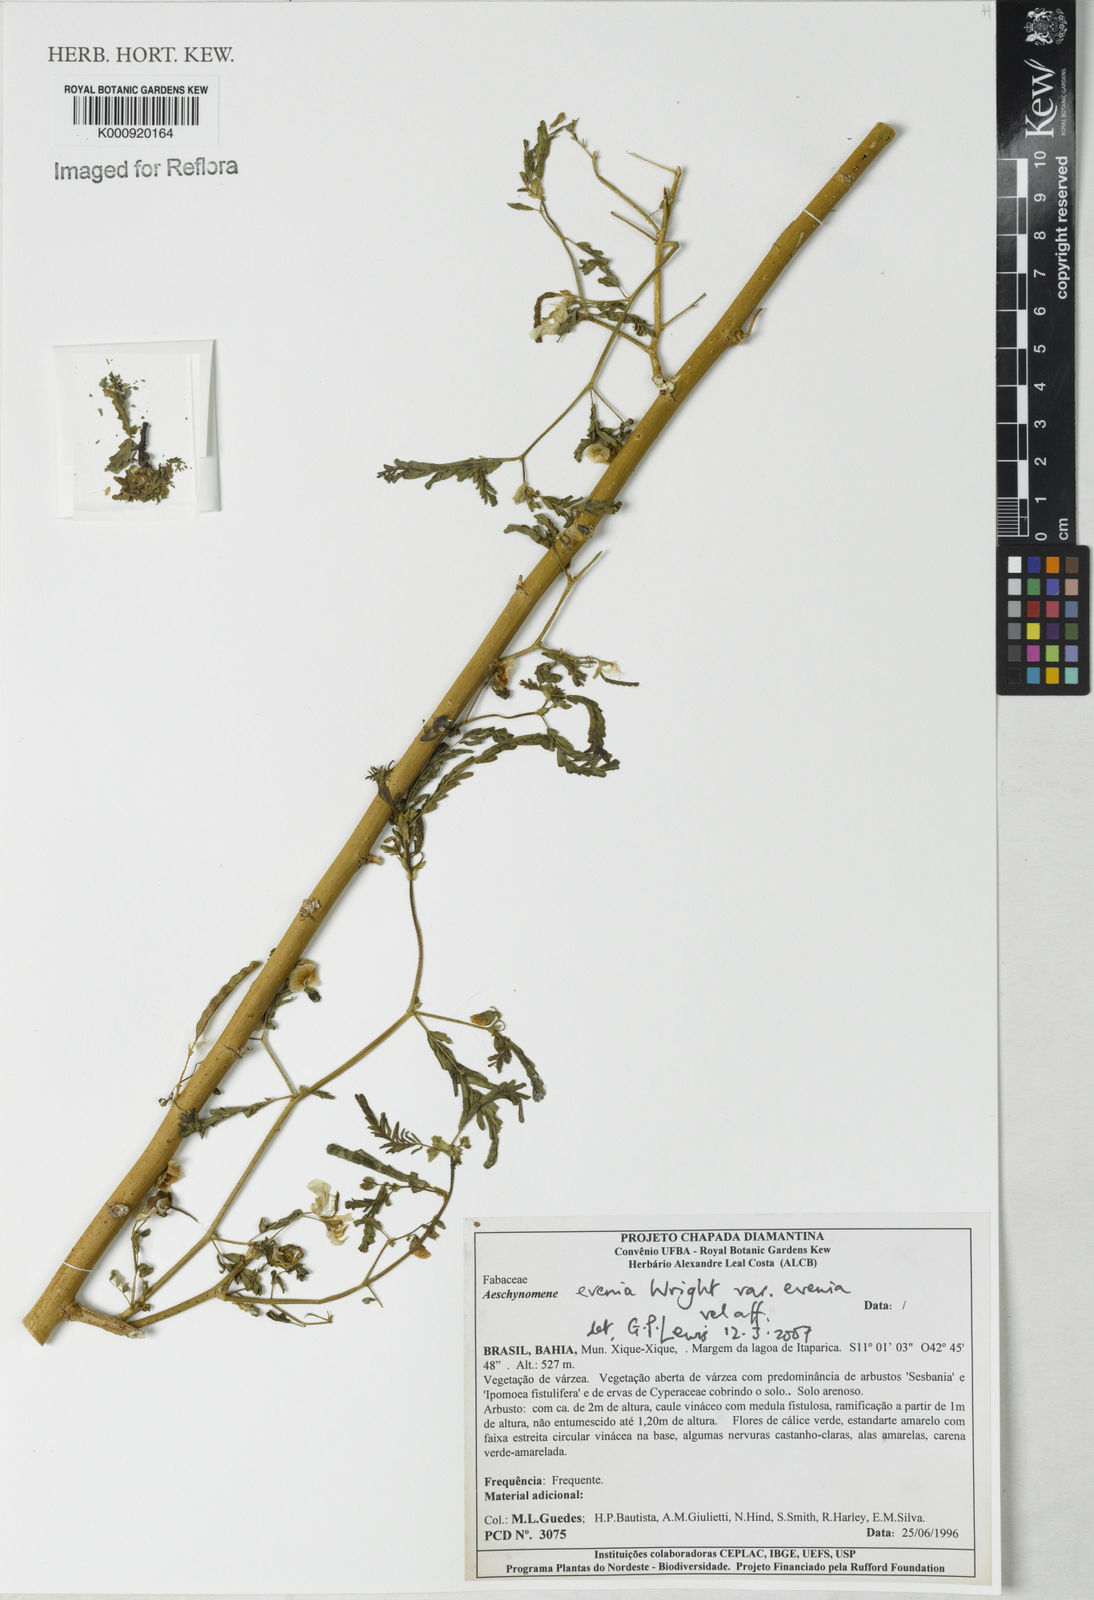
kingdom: Plantae
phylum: Tracheophyta
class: Magnoliopsida
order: Fabales
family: Fabaceae
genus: Aeschynomene
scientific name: Aeschynomene evenia
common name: Shrubby jointvetch
